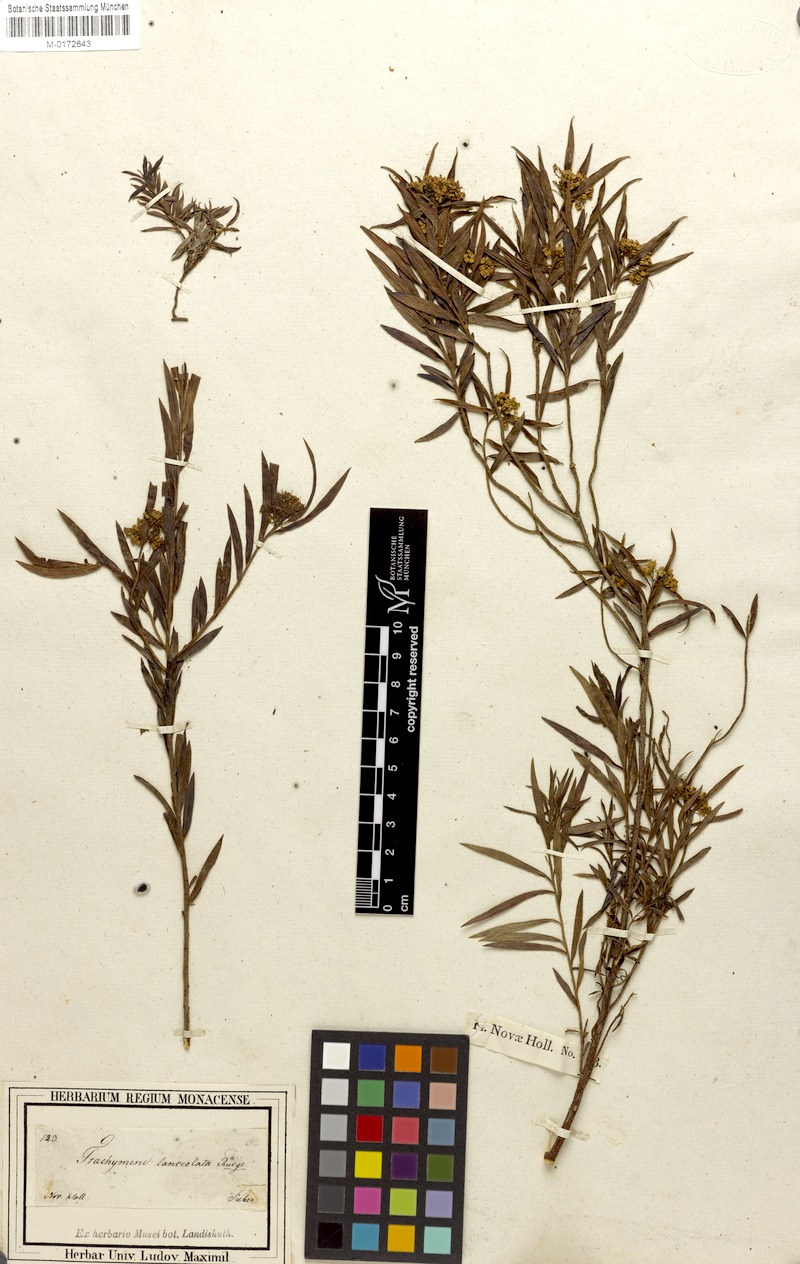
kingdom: Plantae
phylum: Tracheophyta
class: Magnoliopsida
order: Apiales
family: Apiaceae
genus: Platysace
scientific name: Platysace lanceolata
